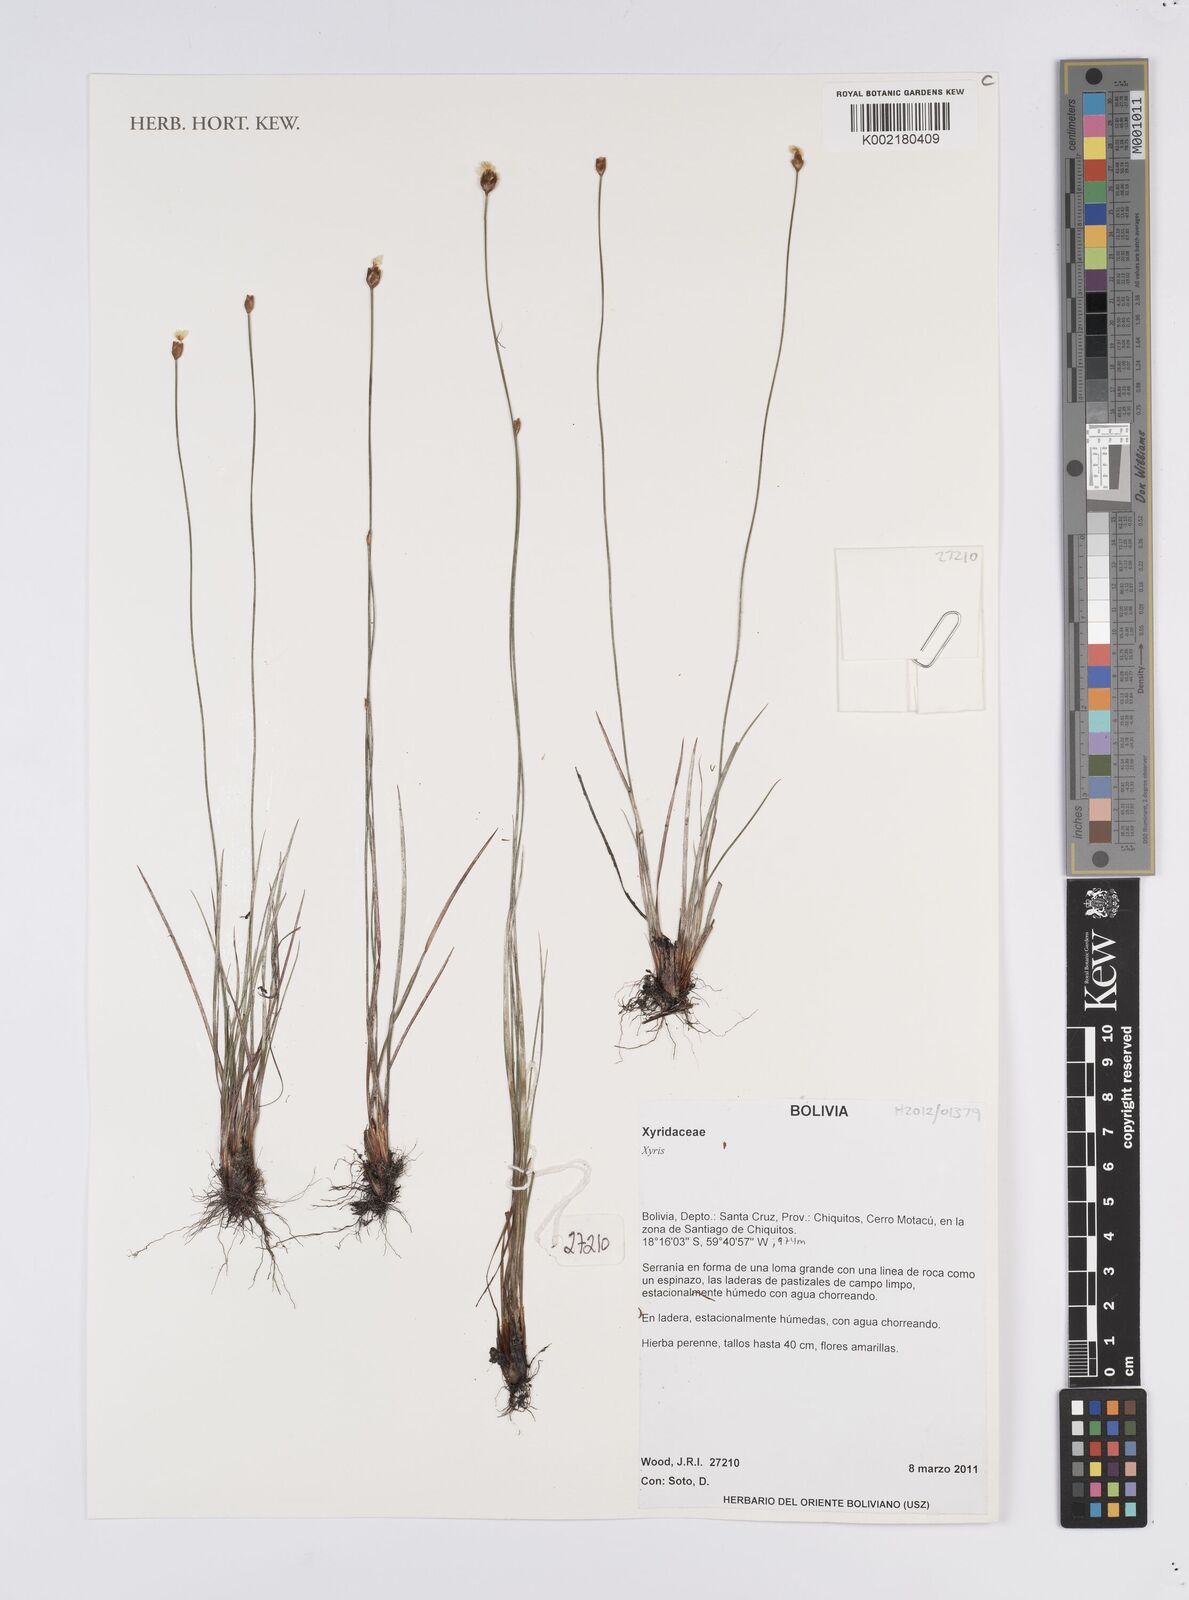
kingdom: Plantae
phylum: Tracheophyta
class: Liliopsida
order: Poales
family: Xyridaceae
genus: Xyris
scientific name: Xyris
